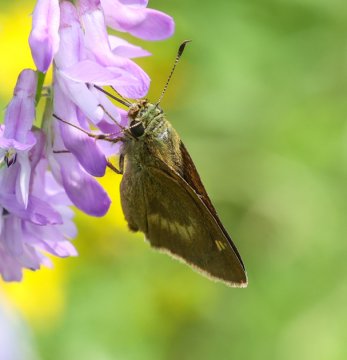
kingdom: Animalia
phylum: Arthropoda
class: Insecta
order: Lepidoptera
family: Hesperiidae
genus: Polites
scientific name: Polites egeremet
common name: Northern Broken-Dash
